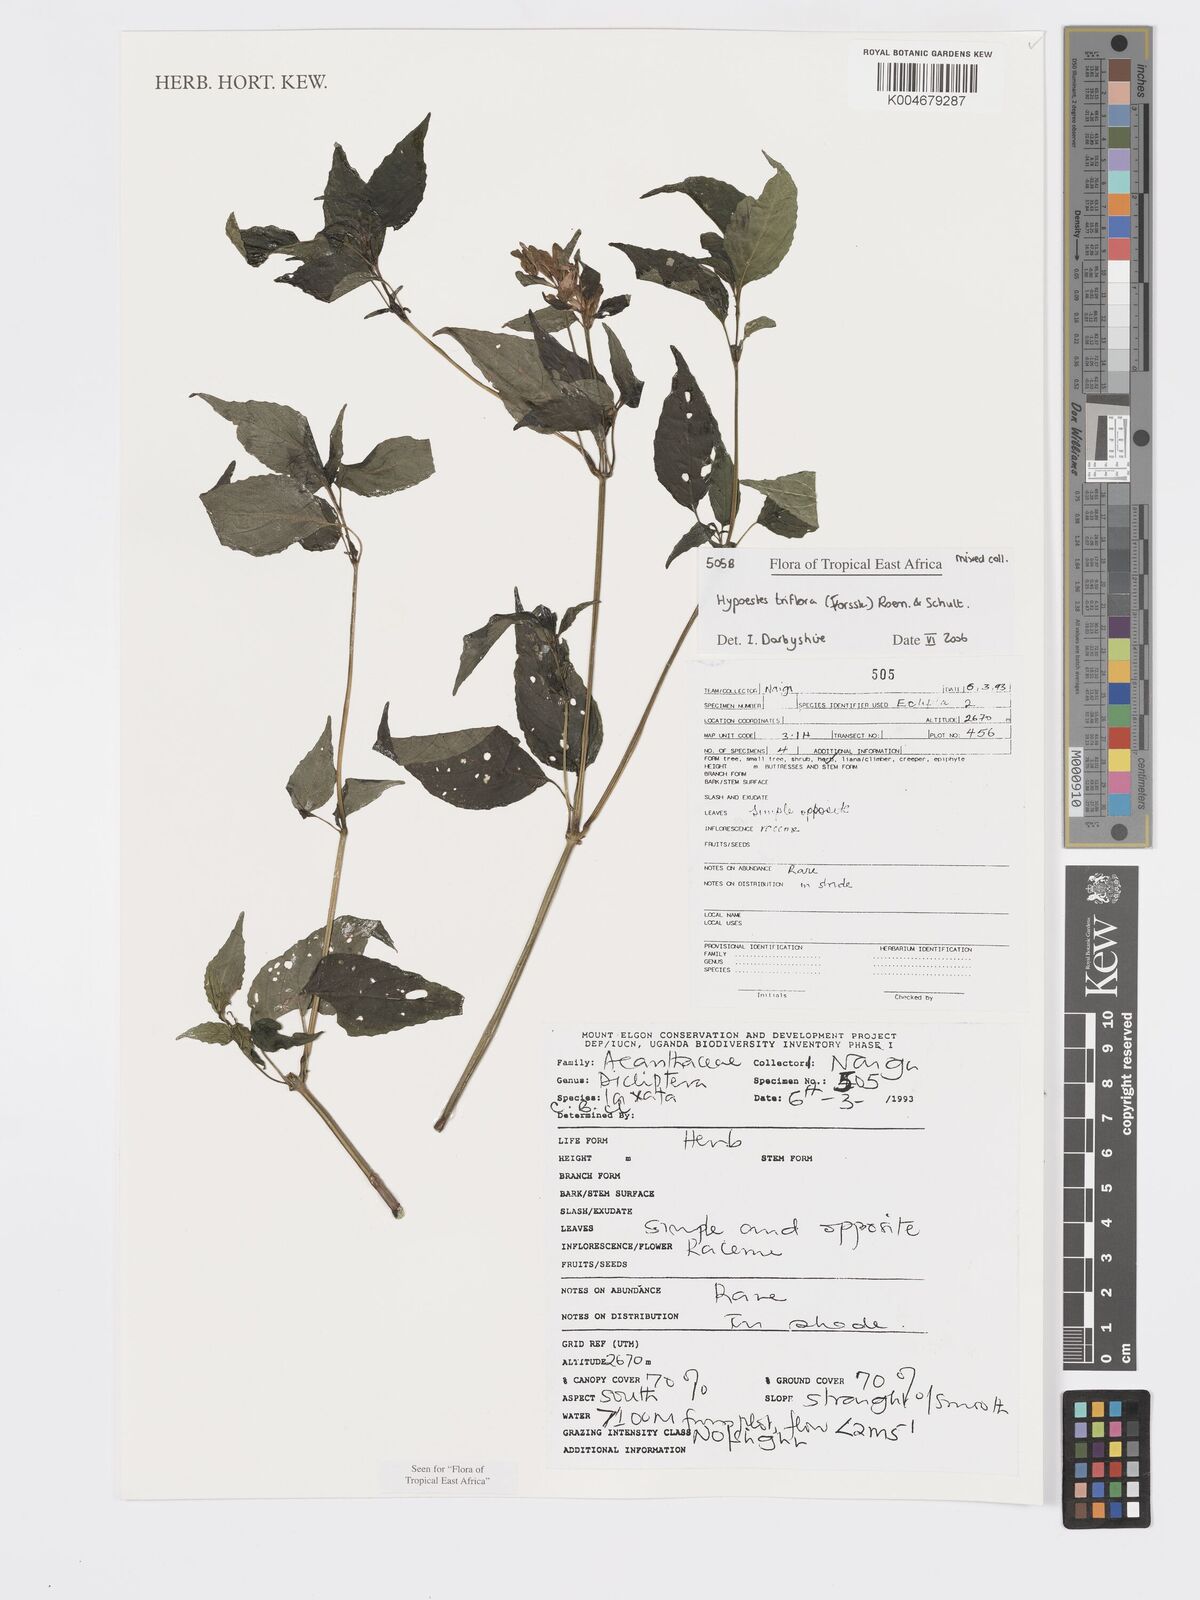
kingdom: Plantae
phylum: Tracheophyta
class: Magnoliopsida
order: Lamiales
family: Acanthaceae
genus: Hypoestes
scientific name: Hypoestes triflora
